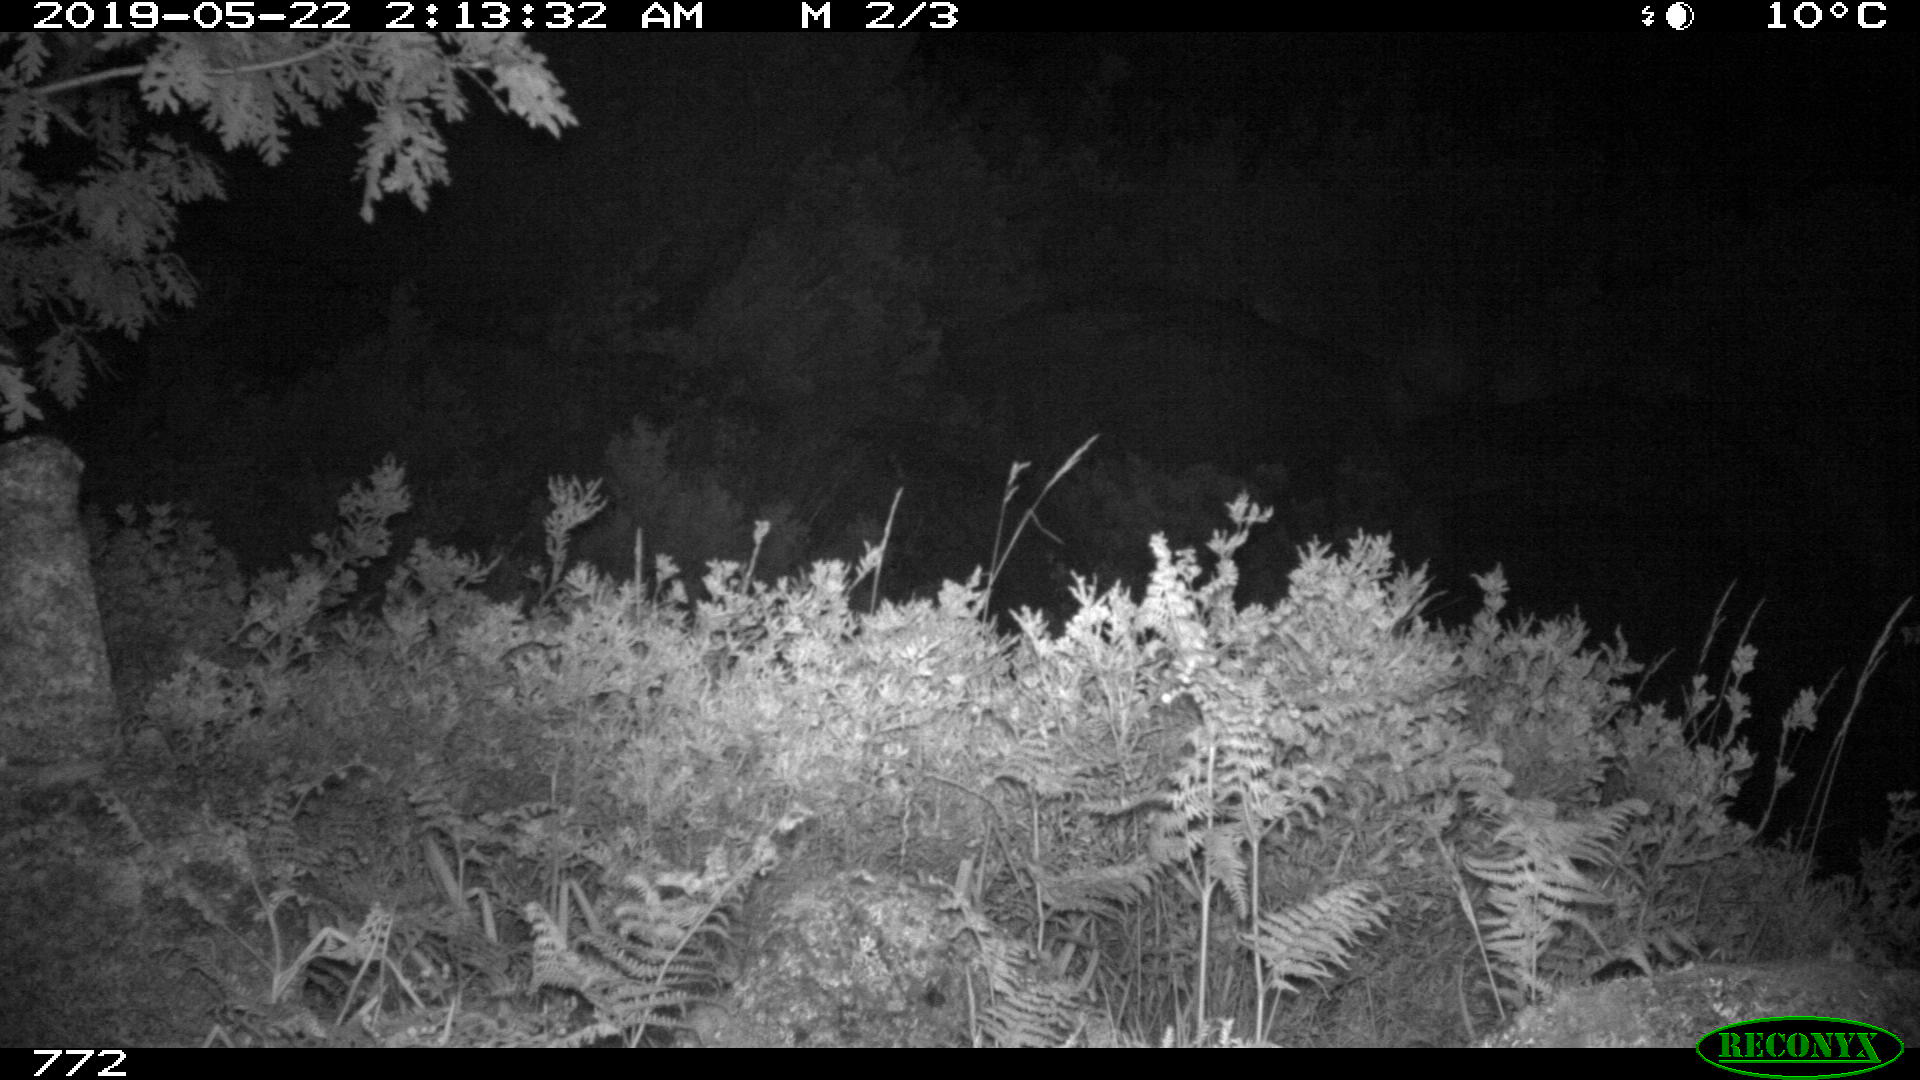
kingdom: Animalia
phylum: Chordata
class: Mammalia
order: Artiodactyla
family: Cervidae
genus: Capreolus
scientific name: Capreolus capreolus
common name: Western roe deer
